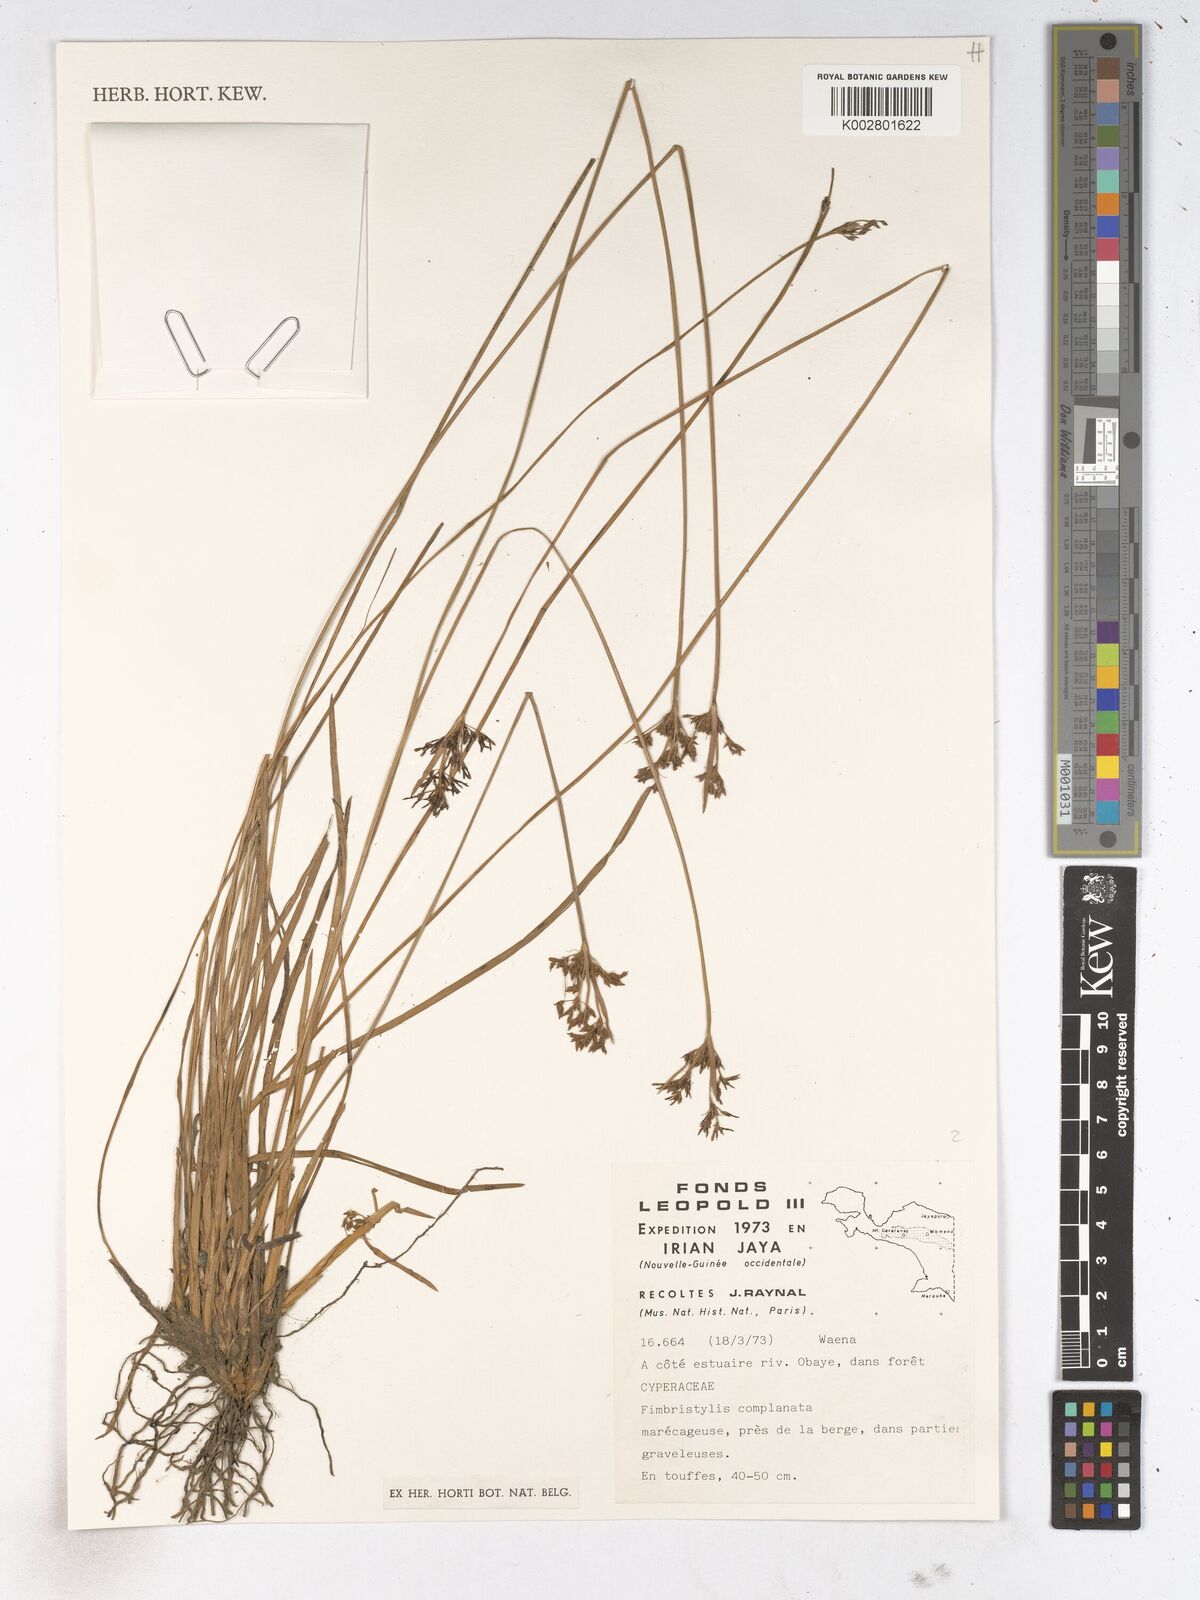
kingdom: Plantae
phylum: Tracheophyta
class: Liliopsida
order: Poales
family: Cyperaceae
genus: Fimbristylis
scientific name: Fimbristylis complanata
